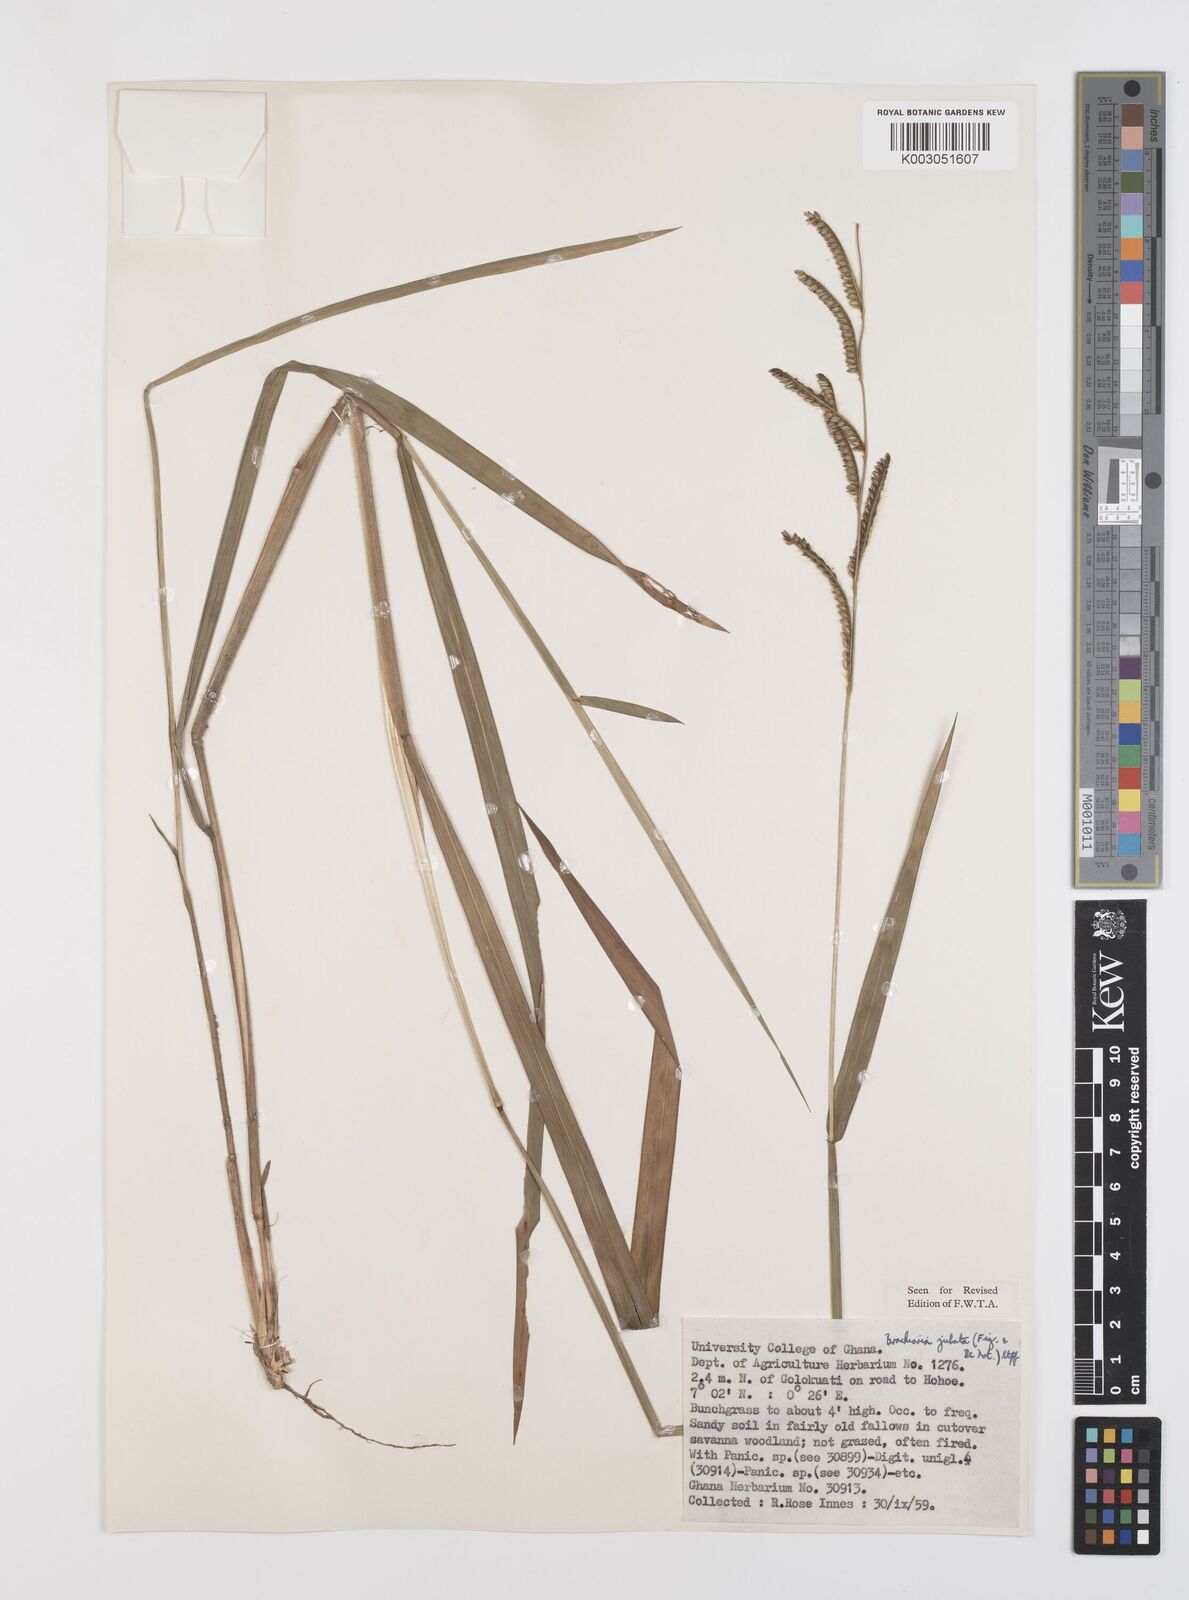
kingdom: Plantae
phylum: Tracheophyta
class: Liliopsida
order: Poales
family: Poaceae
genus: Urochloa
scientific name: Urochloa jubata
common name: Buffalograss
